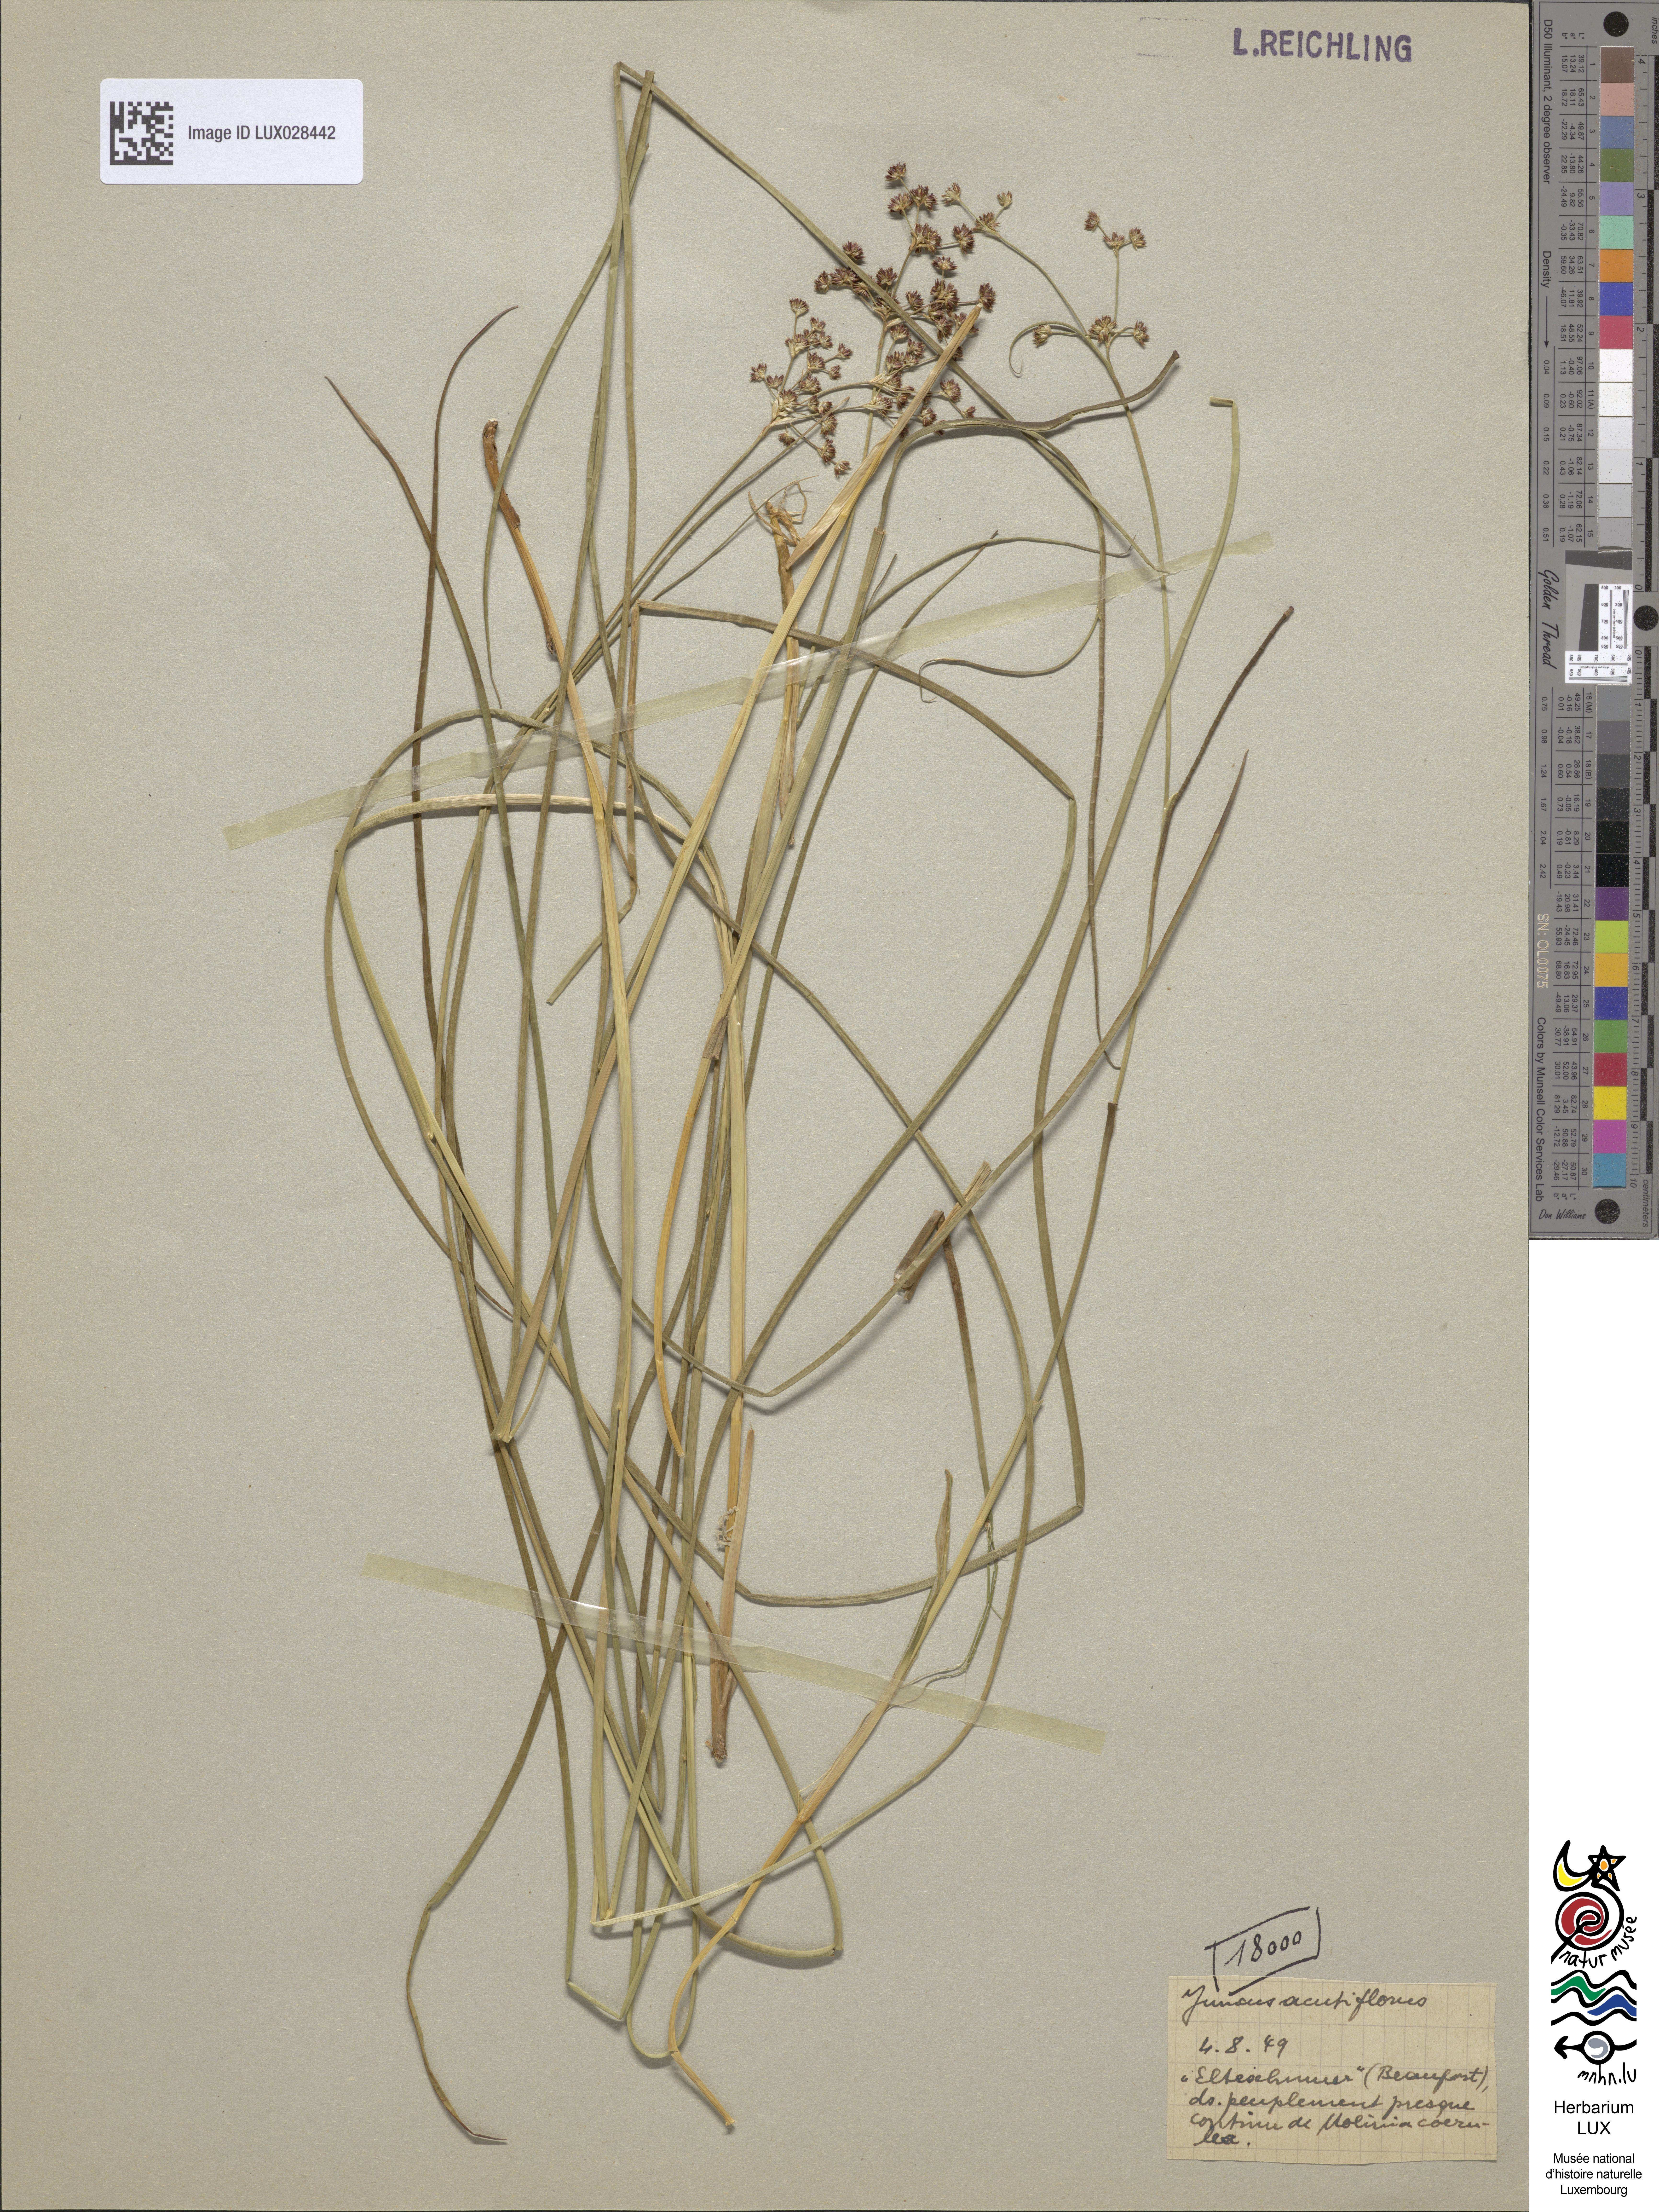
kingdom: Plantae
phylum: Tracheophyta
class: Liliopsida
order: Poales
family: Juncaceae
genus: Juncus
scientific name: Juncus acutiflorus
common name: Sharp-flowered rush
